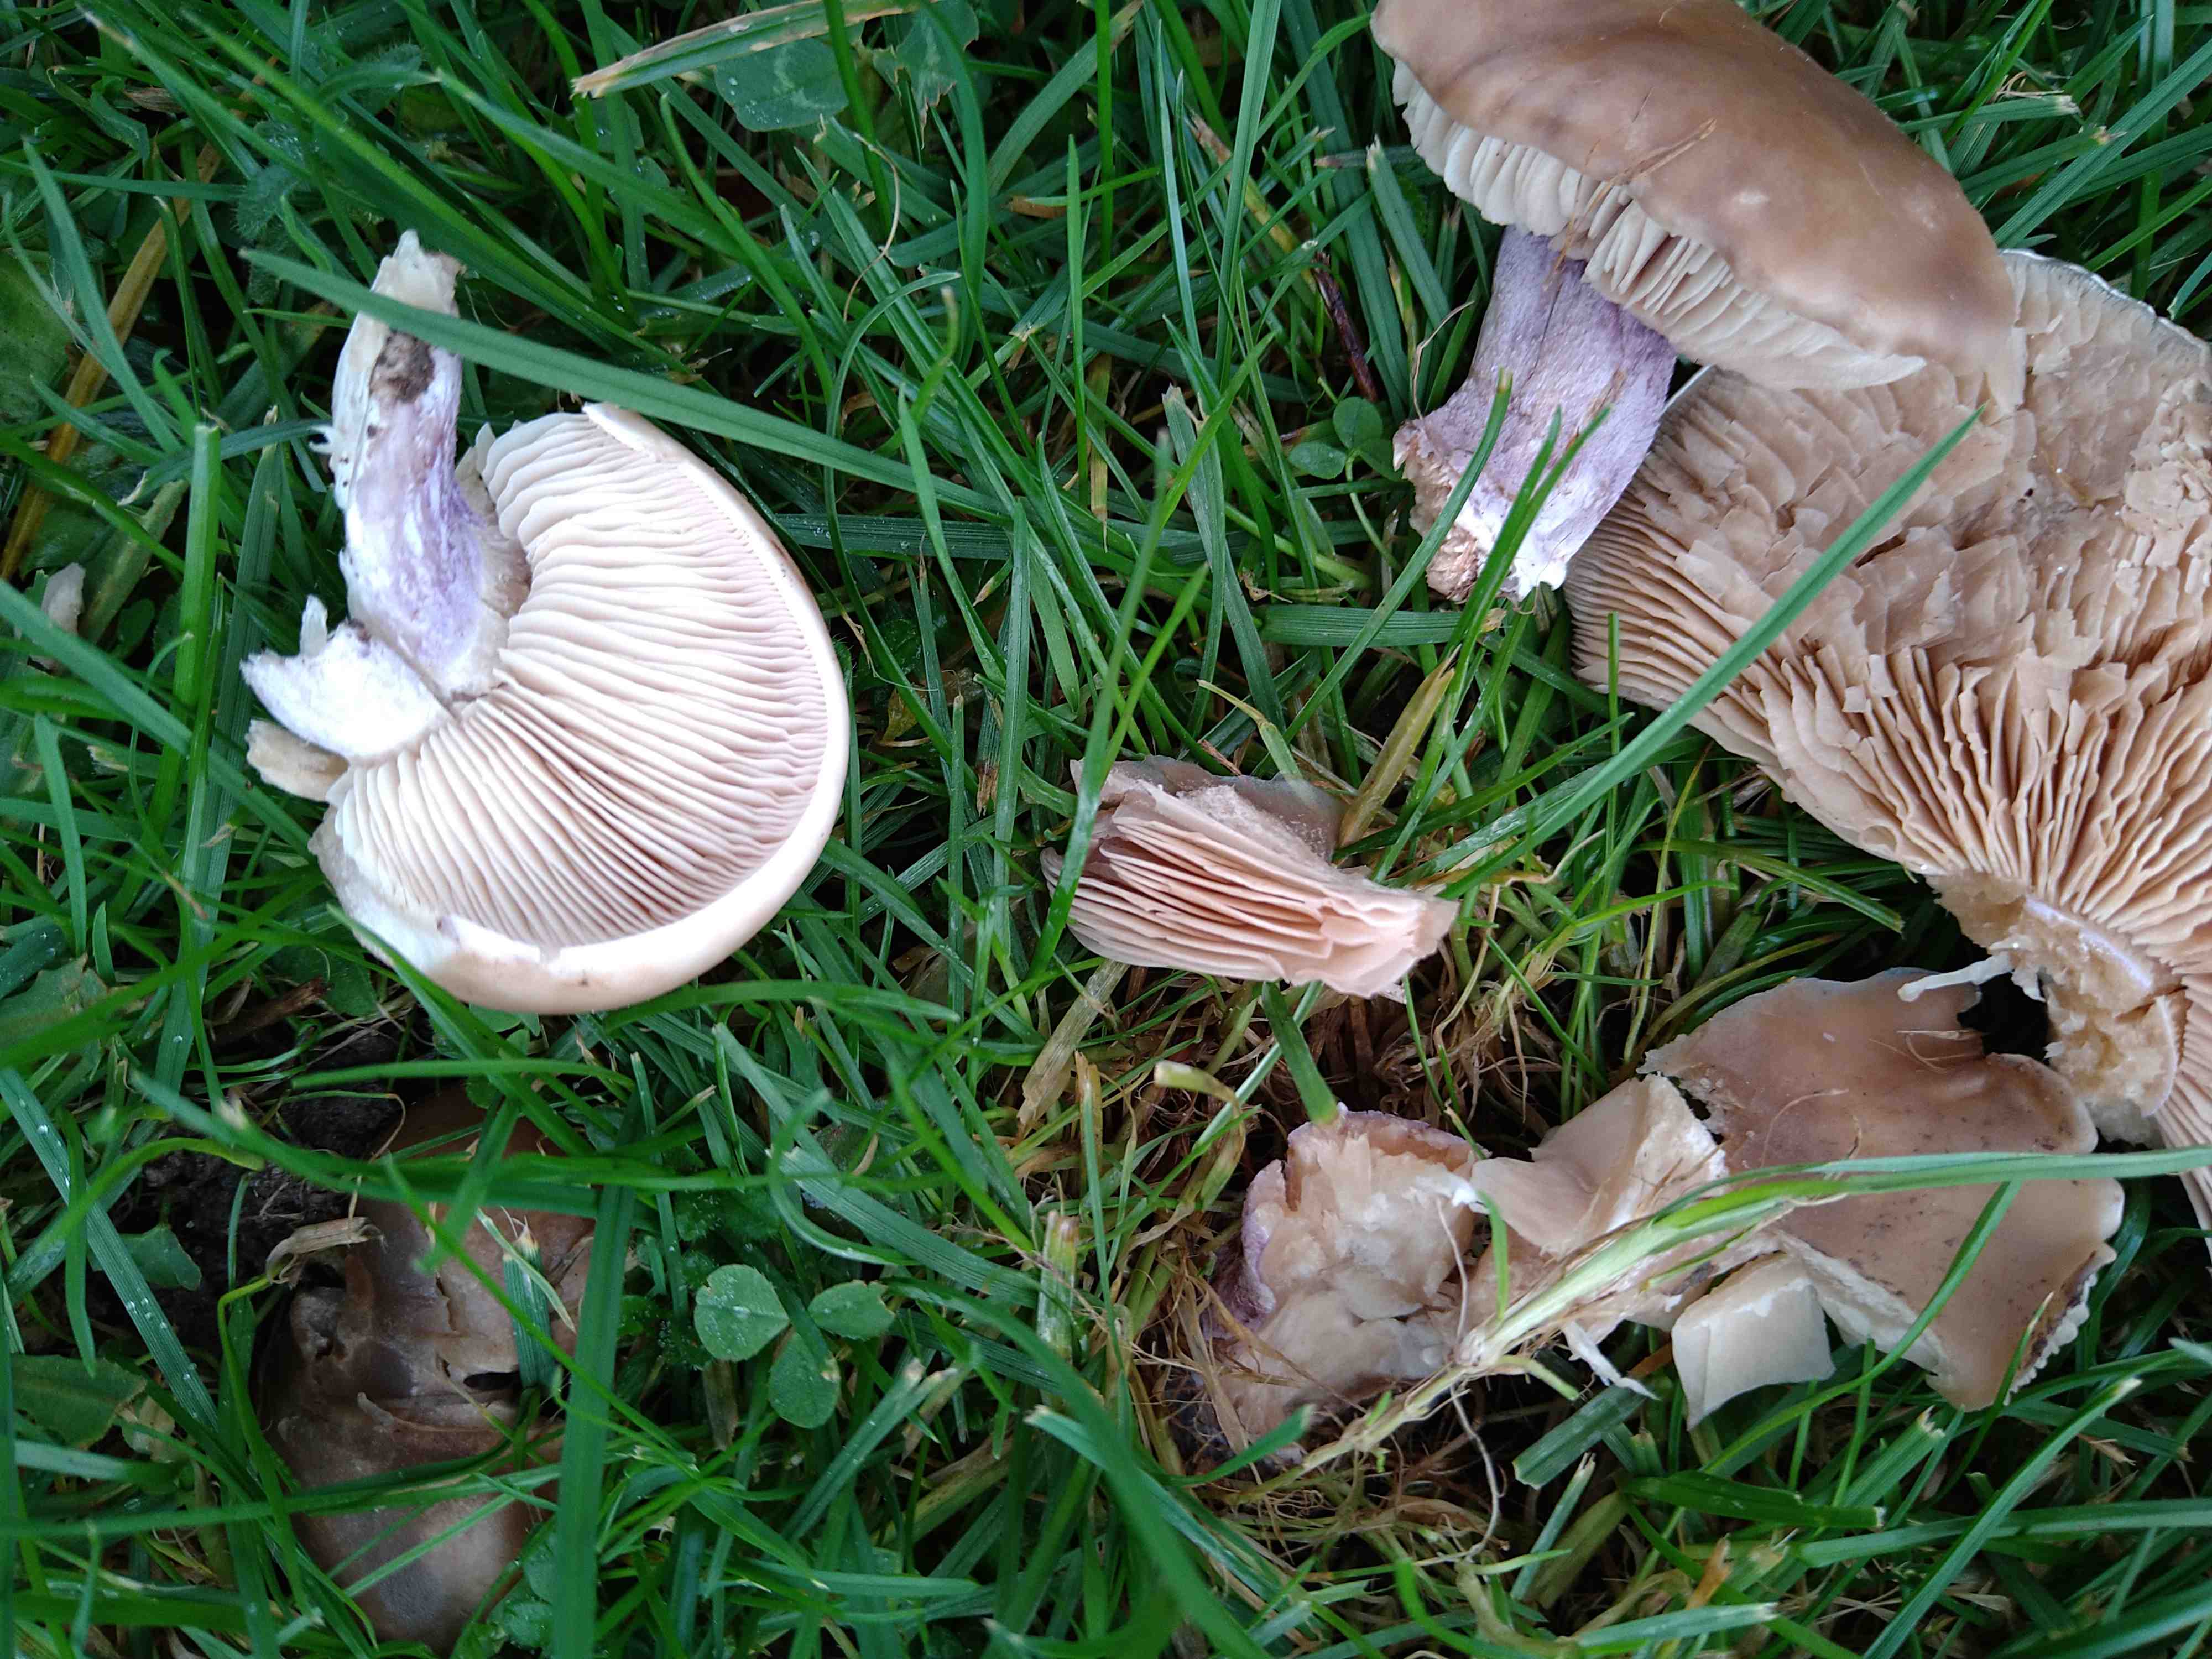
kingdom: Fungi
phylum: Basidiomycota
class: Agaricomycetes
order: Agaricales
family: Tricholomataceae
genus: Lepista
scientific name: Lepista personata
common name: bleg hekseringshat
